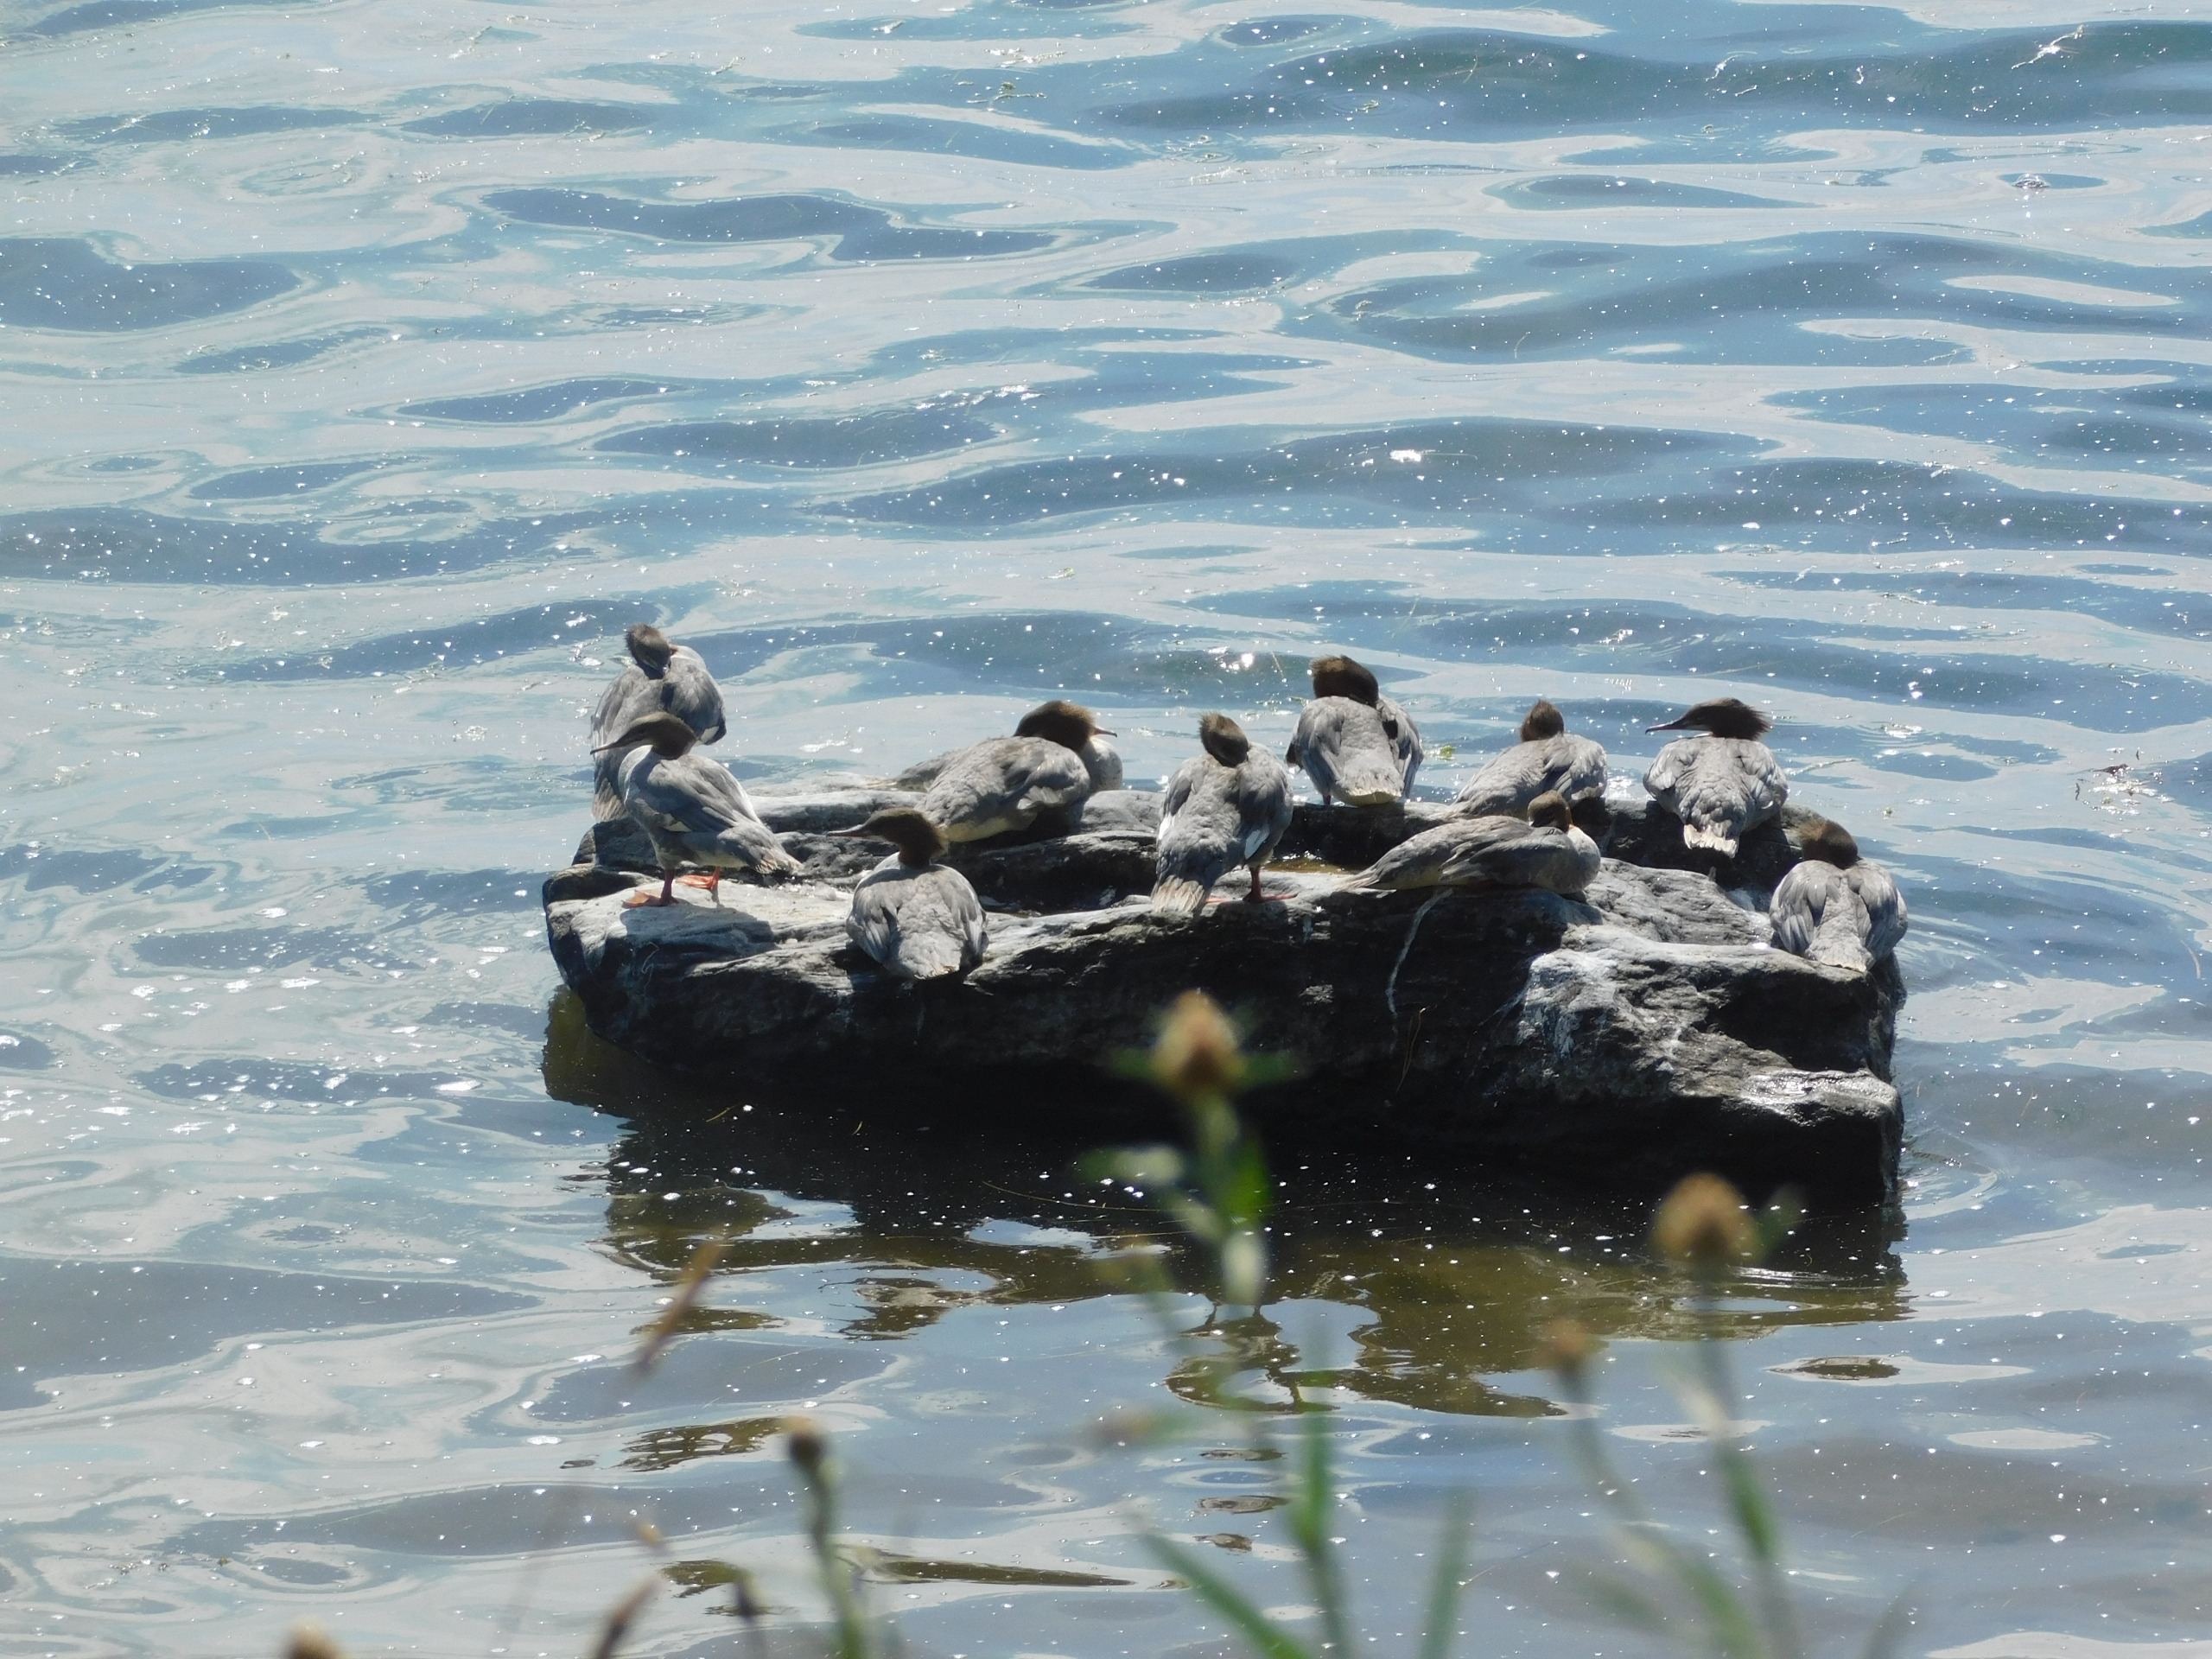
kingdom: Animalia
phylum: Chordata
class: Aves
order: Anseriformes
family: Anatidae
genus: Mergus
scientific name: Mergus merganser
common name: Stor skallesluger
